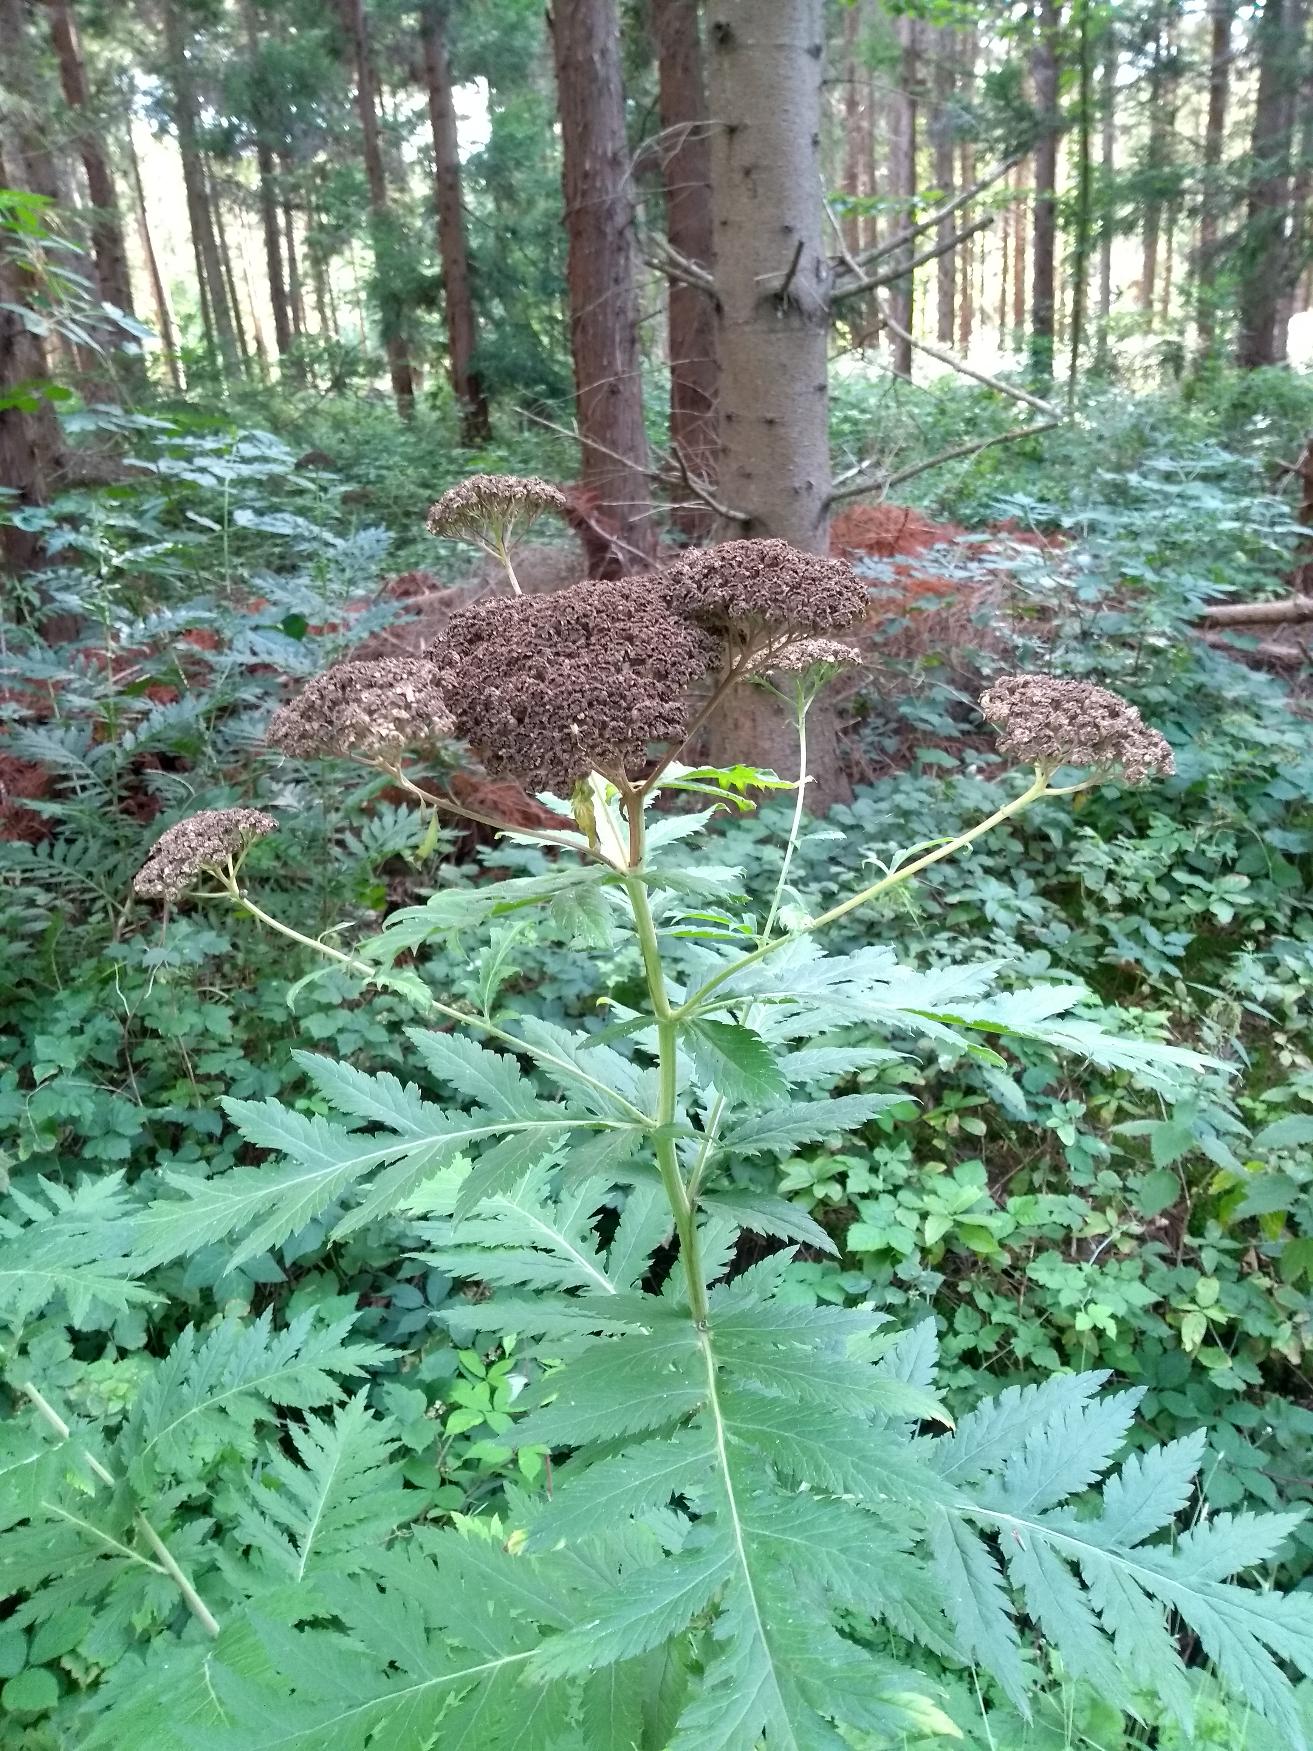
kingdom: Plantae
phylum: Tracheophyta
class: Magnoliopsida
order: Asterales
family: Asteraceae
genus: Tanacetum
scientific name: Tanacetum macrophyllum
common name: Røllike-matrem
